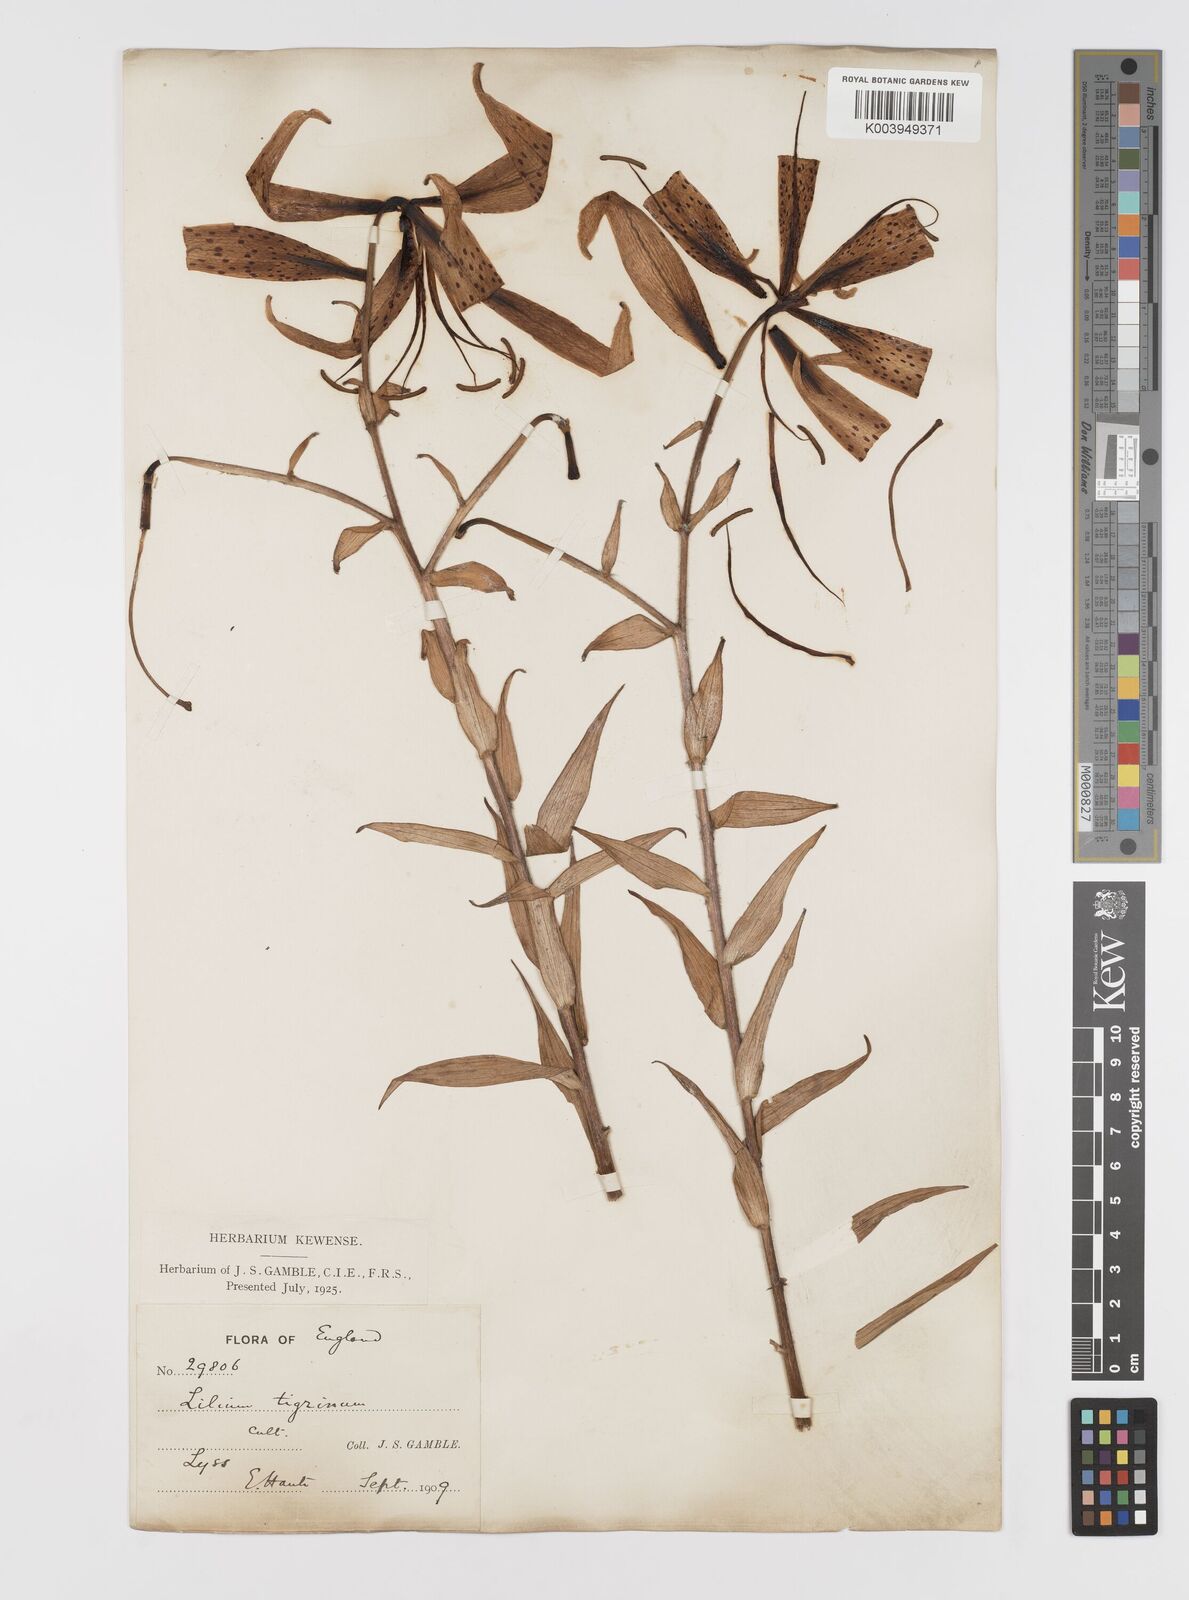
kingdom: Plantae
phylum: Tracheophyta
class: Liliopsida
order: Liliales
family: Liliaceae
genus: Lilium
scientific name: Lilium lancifolium
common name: Tiger lily
